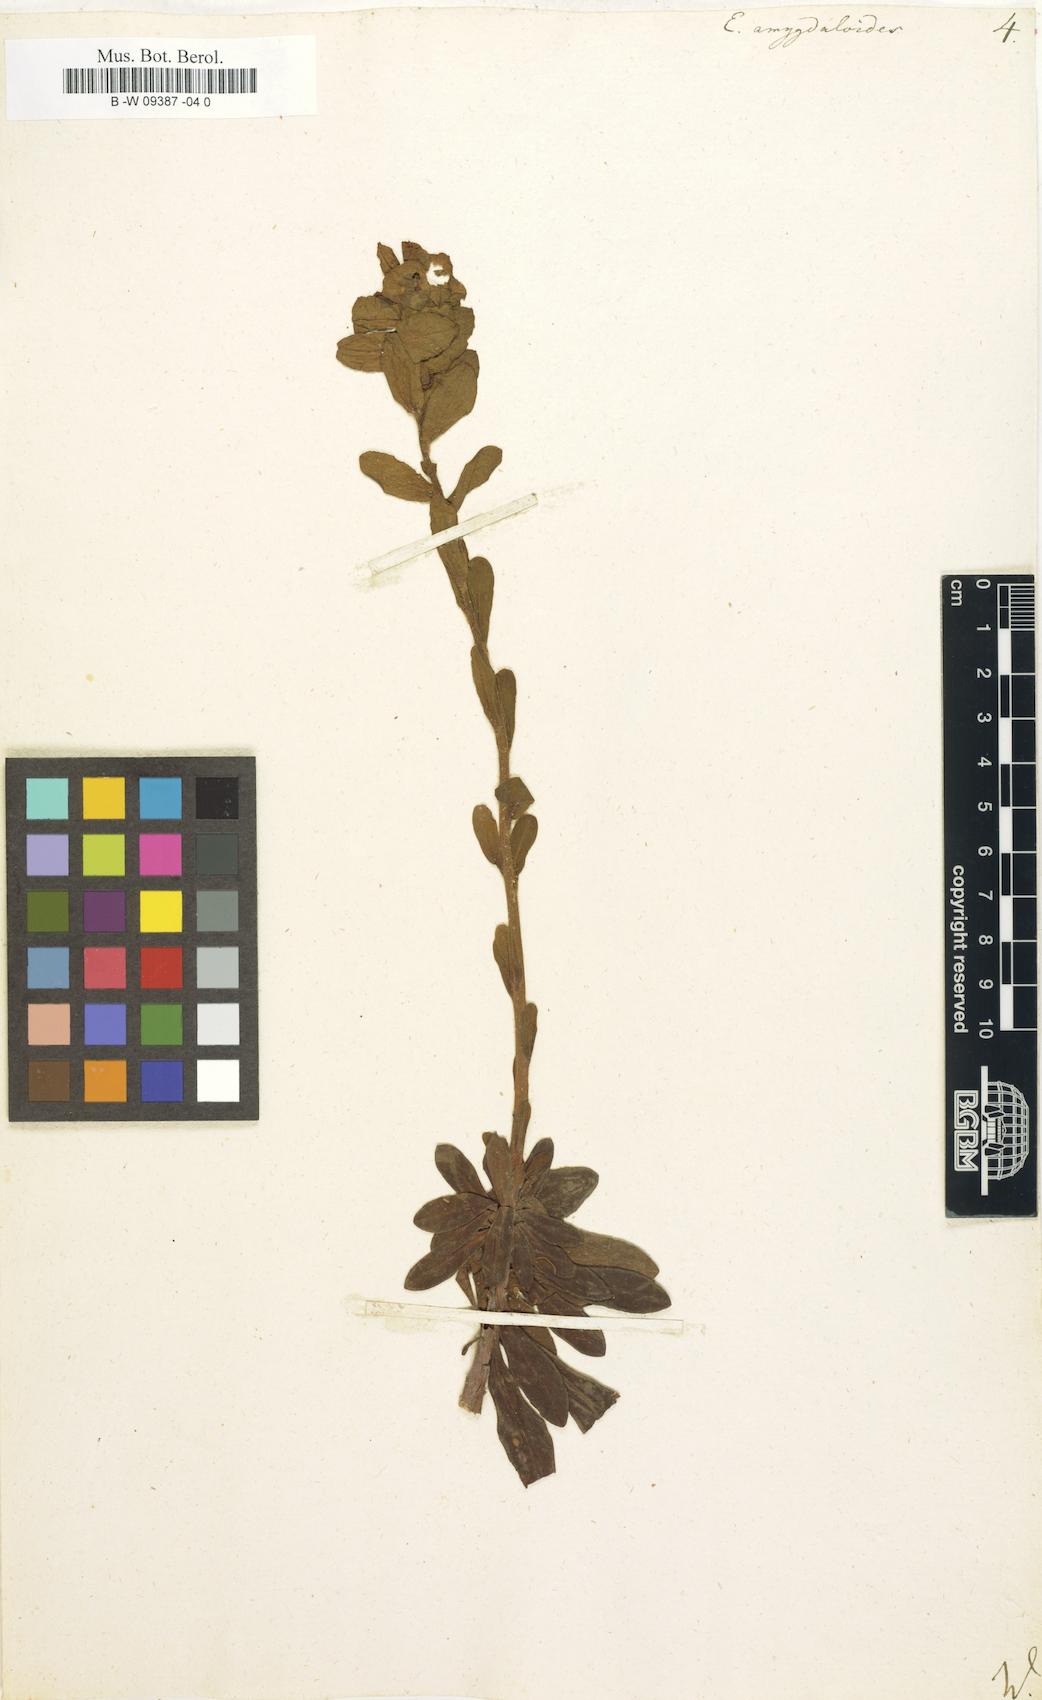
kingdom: Plantae
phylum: Tracheophyta
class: Magnoliopsida
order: Malpighiales
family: Euphorbiaceae
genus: Euphorbia
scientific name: Euphorbia amygdaloides
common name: Wood spurge
